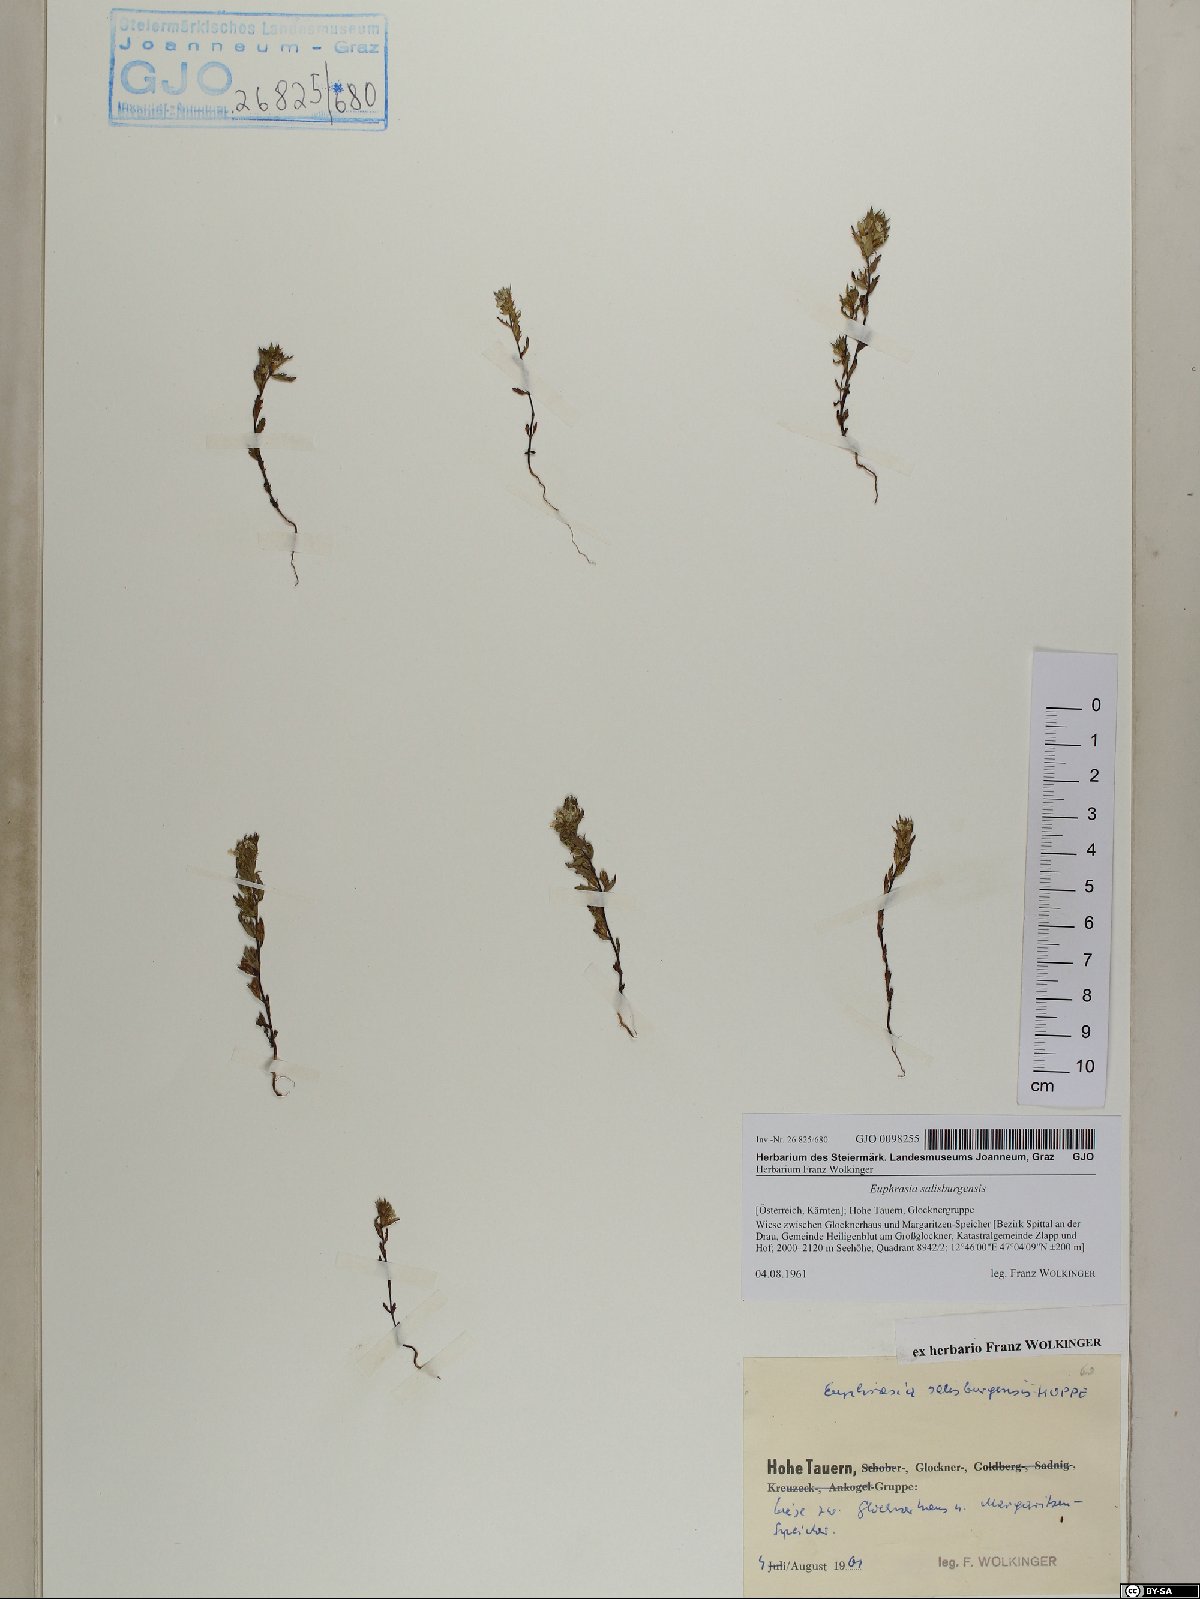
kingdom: Plantae
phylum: Tracheophyta
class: Magnoliopsida
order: Lamiales
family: Orobanchaceae
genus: Euphrasia
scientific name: Euphrasia salisburgensis
